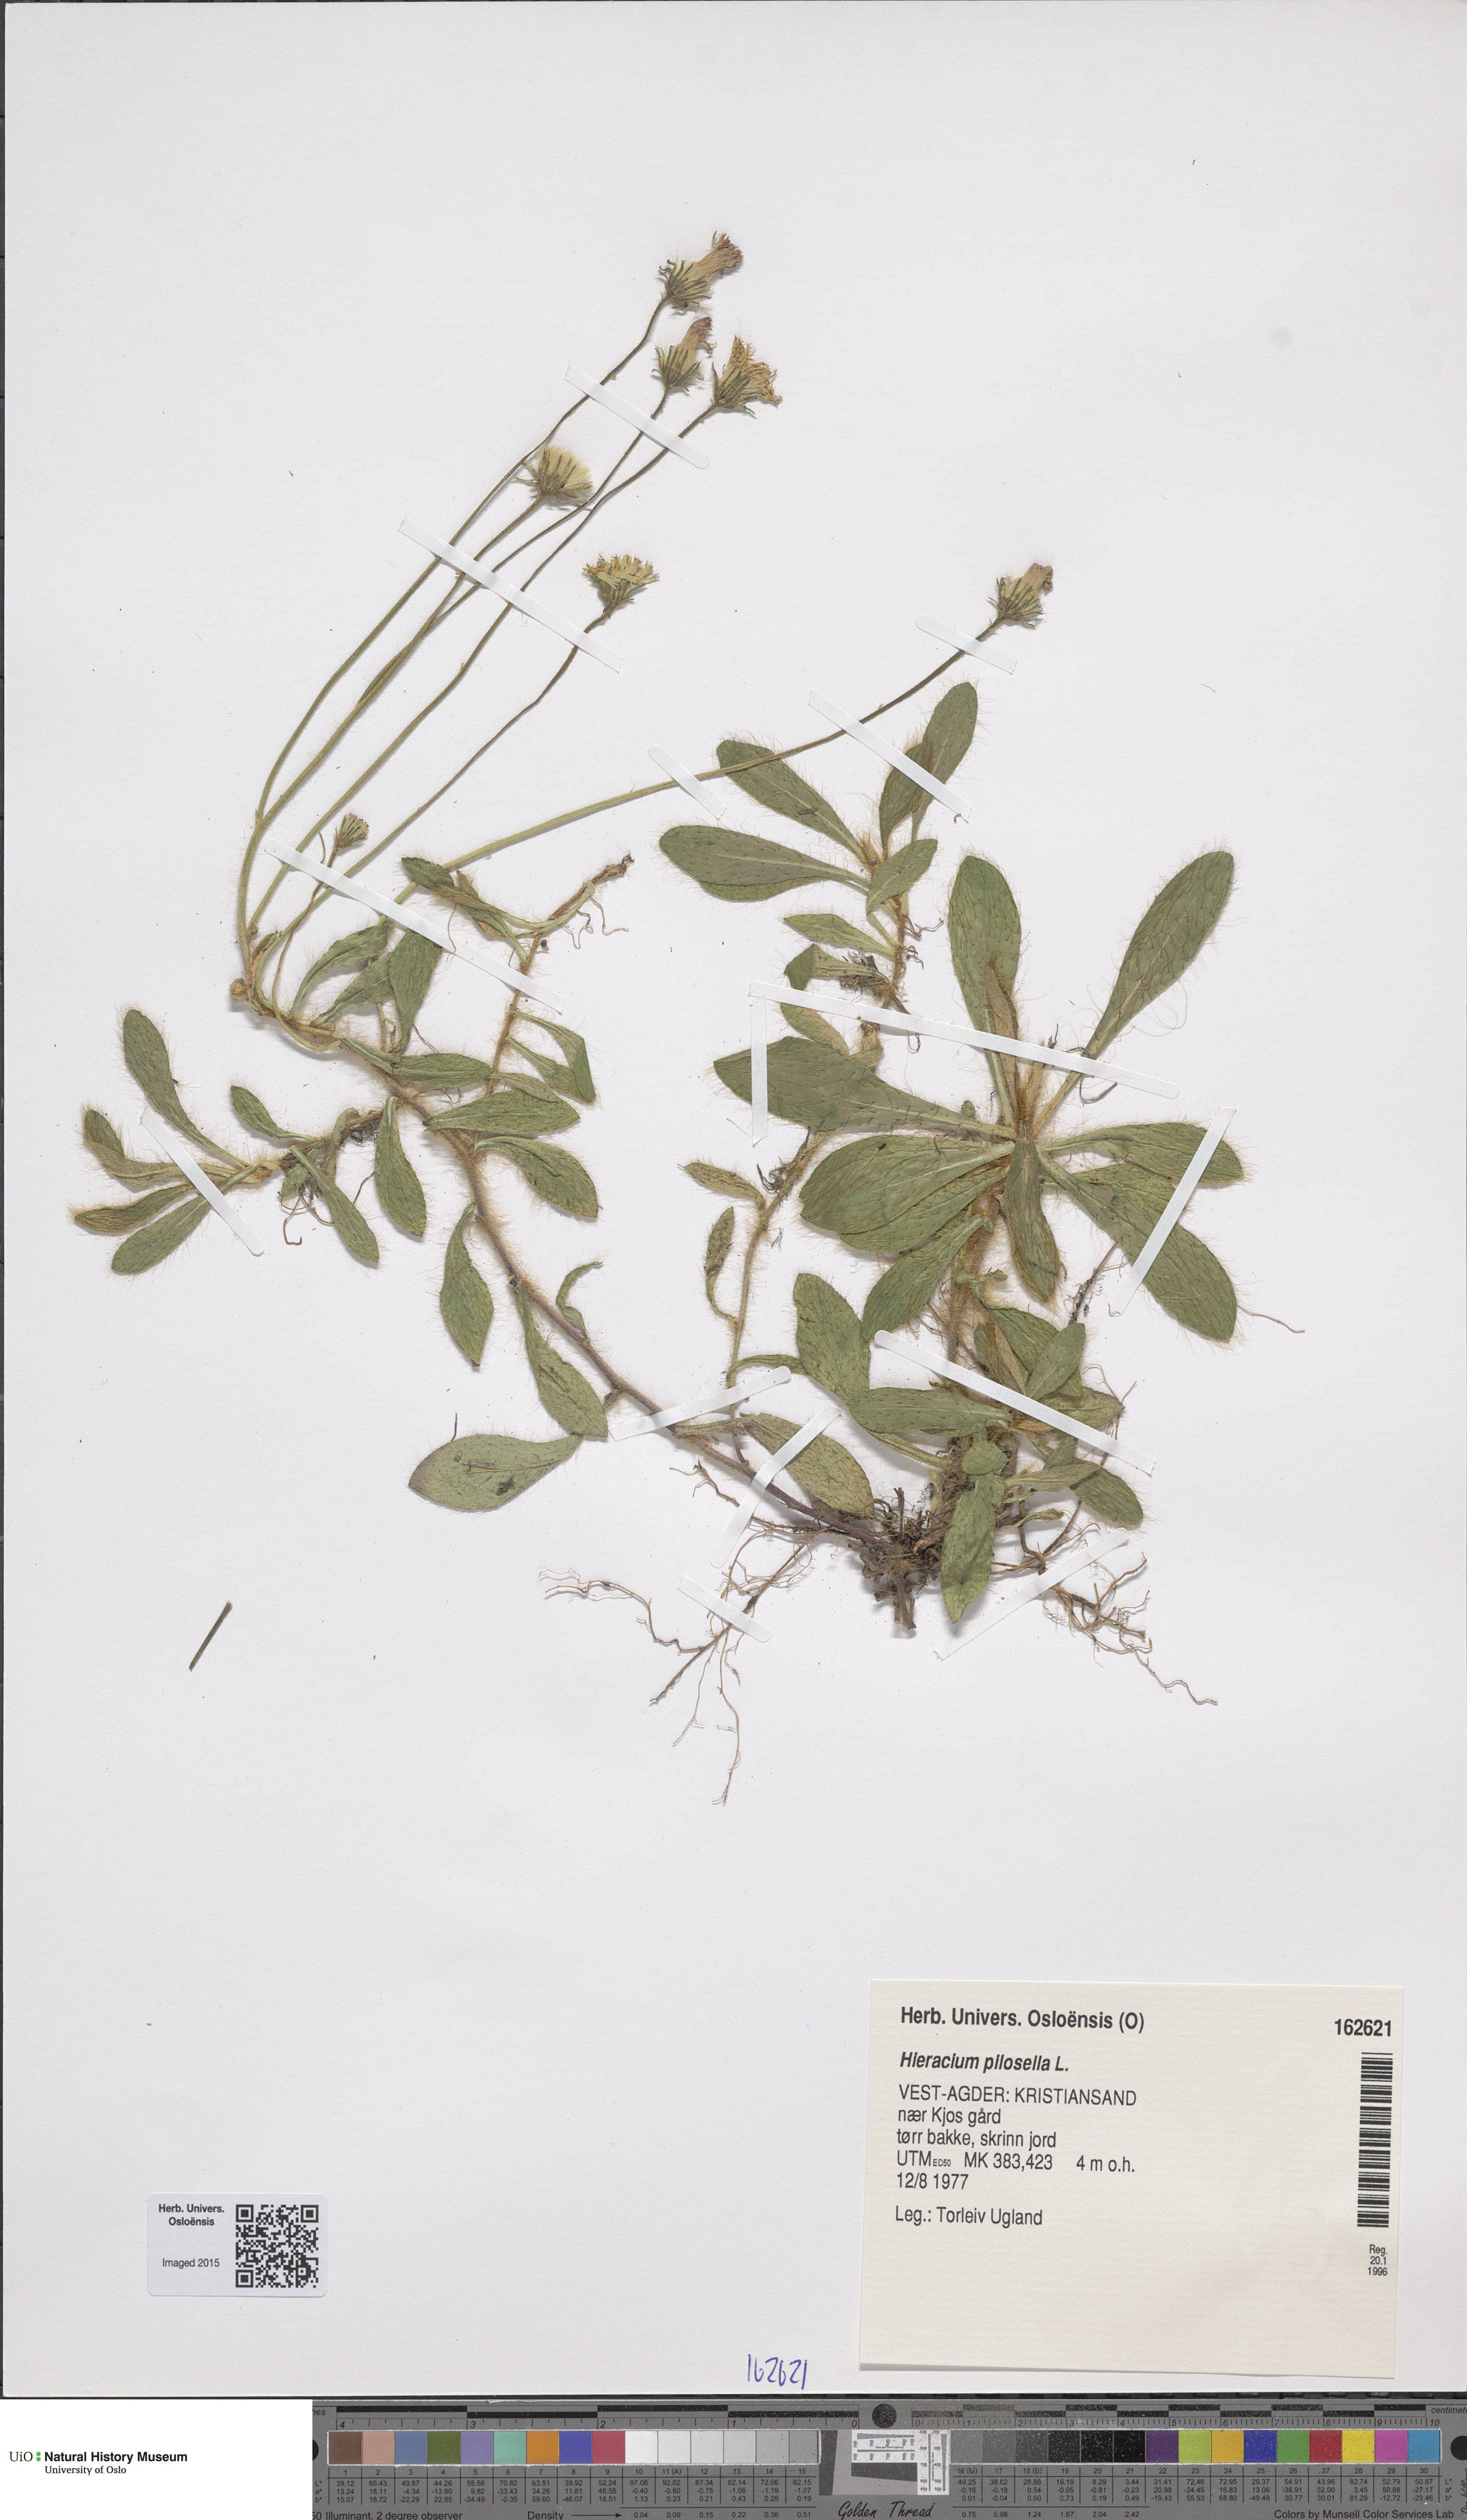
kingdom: Plantae
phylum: Tracheophyta
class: Magnoliopsida
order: Asterales
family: Asteraceae
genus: Pilosella
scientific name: Pilosella officinarum
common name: Mouse-ear hawkweed
